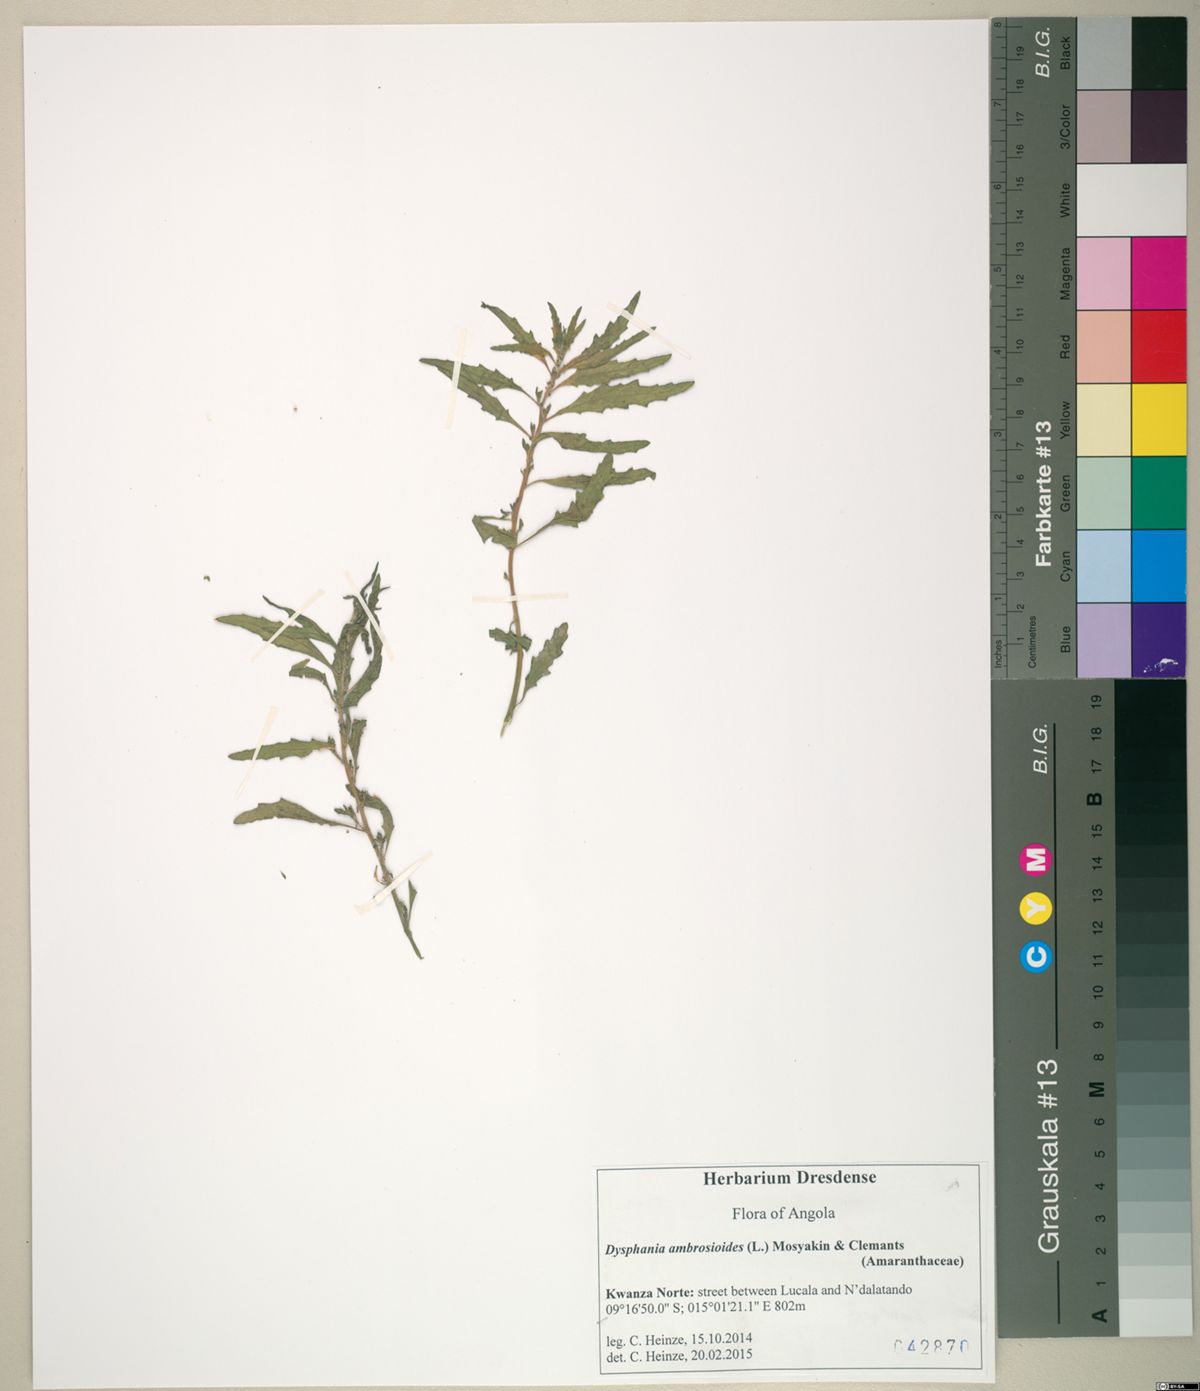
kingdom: Plantae
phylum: Tracheophyta
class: Magnoliopsida
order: Caryophyllales
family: Amaranthaceae
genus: Dysphania
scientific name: Dysphania ambrosioides
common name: Wormseed
